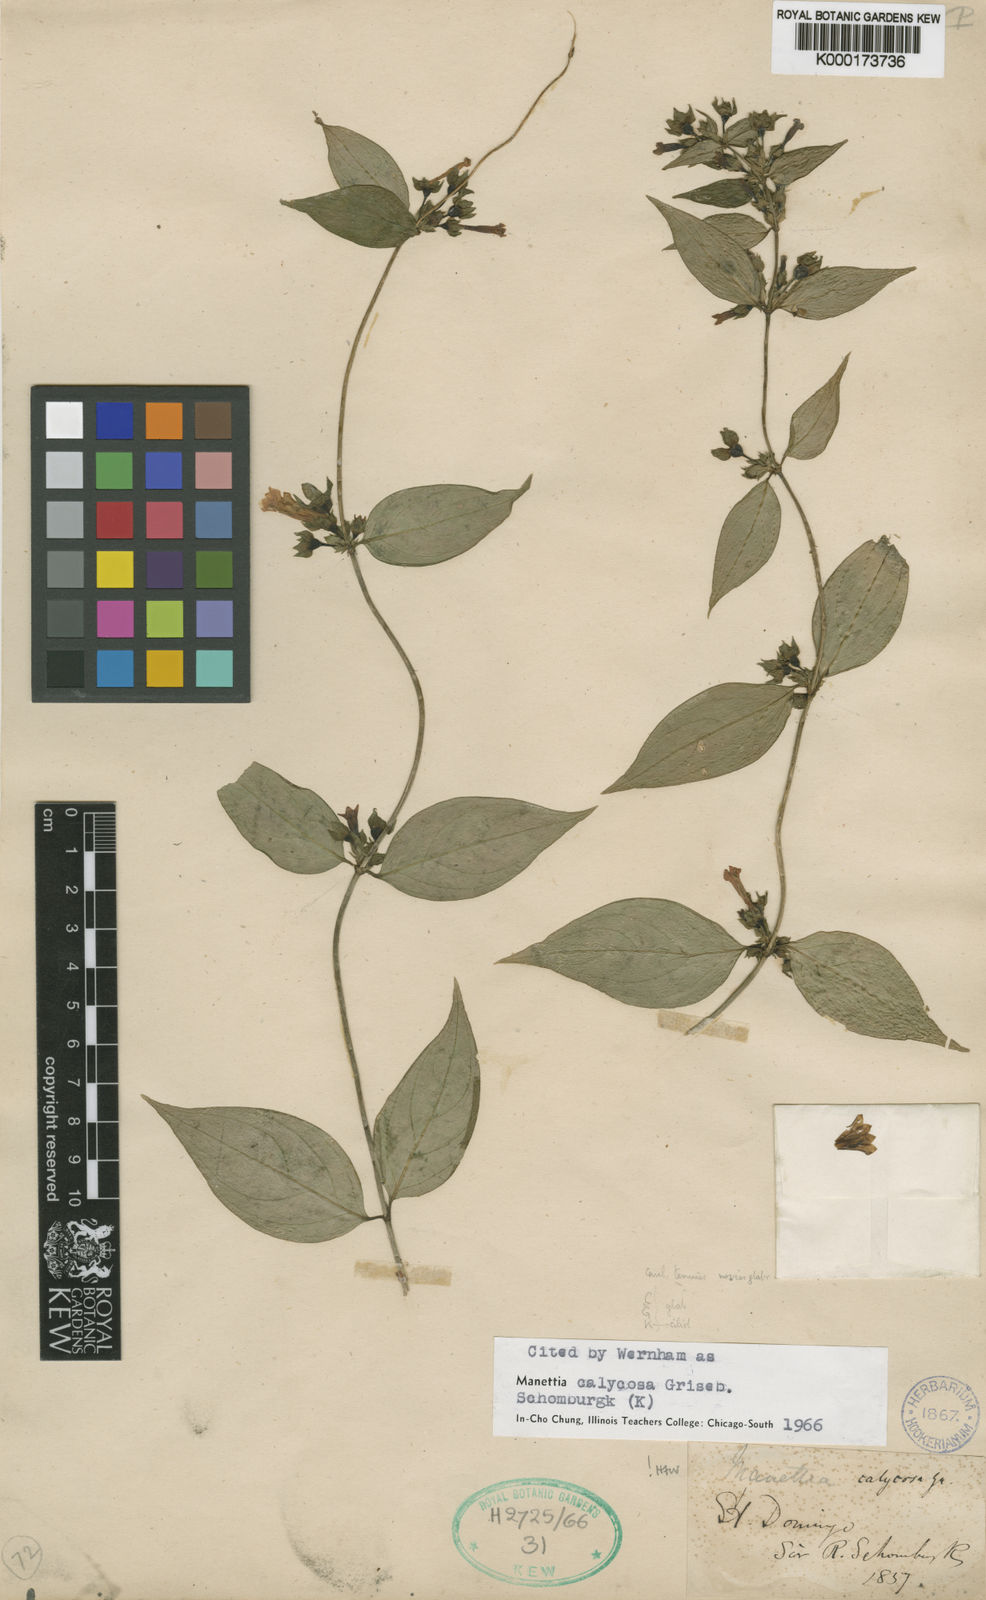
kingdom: Plantae
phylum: Tracheophyta
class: Magnoliopsida
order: Gentianales
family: Rubiaceae
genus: Manettia
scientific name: Manettia calycosa
